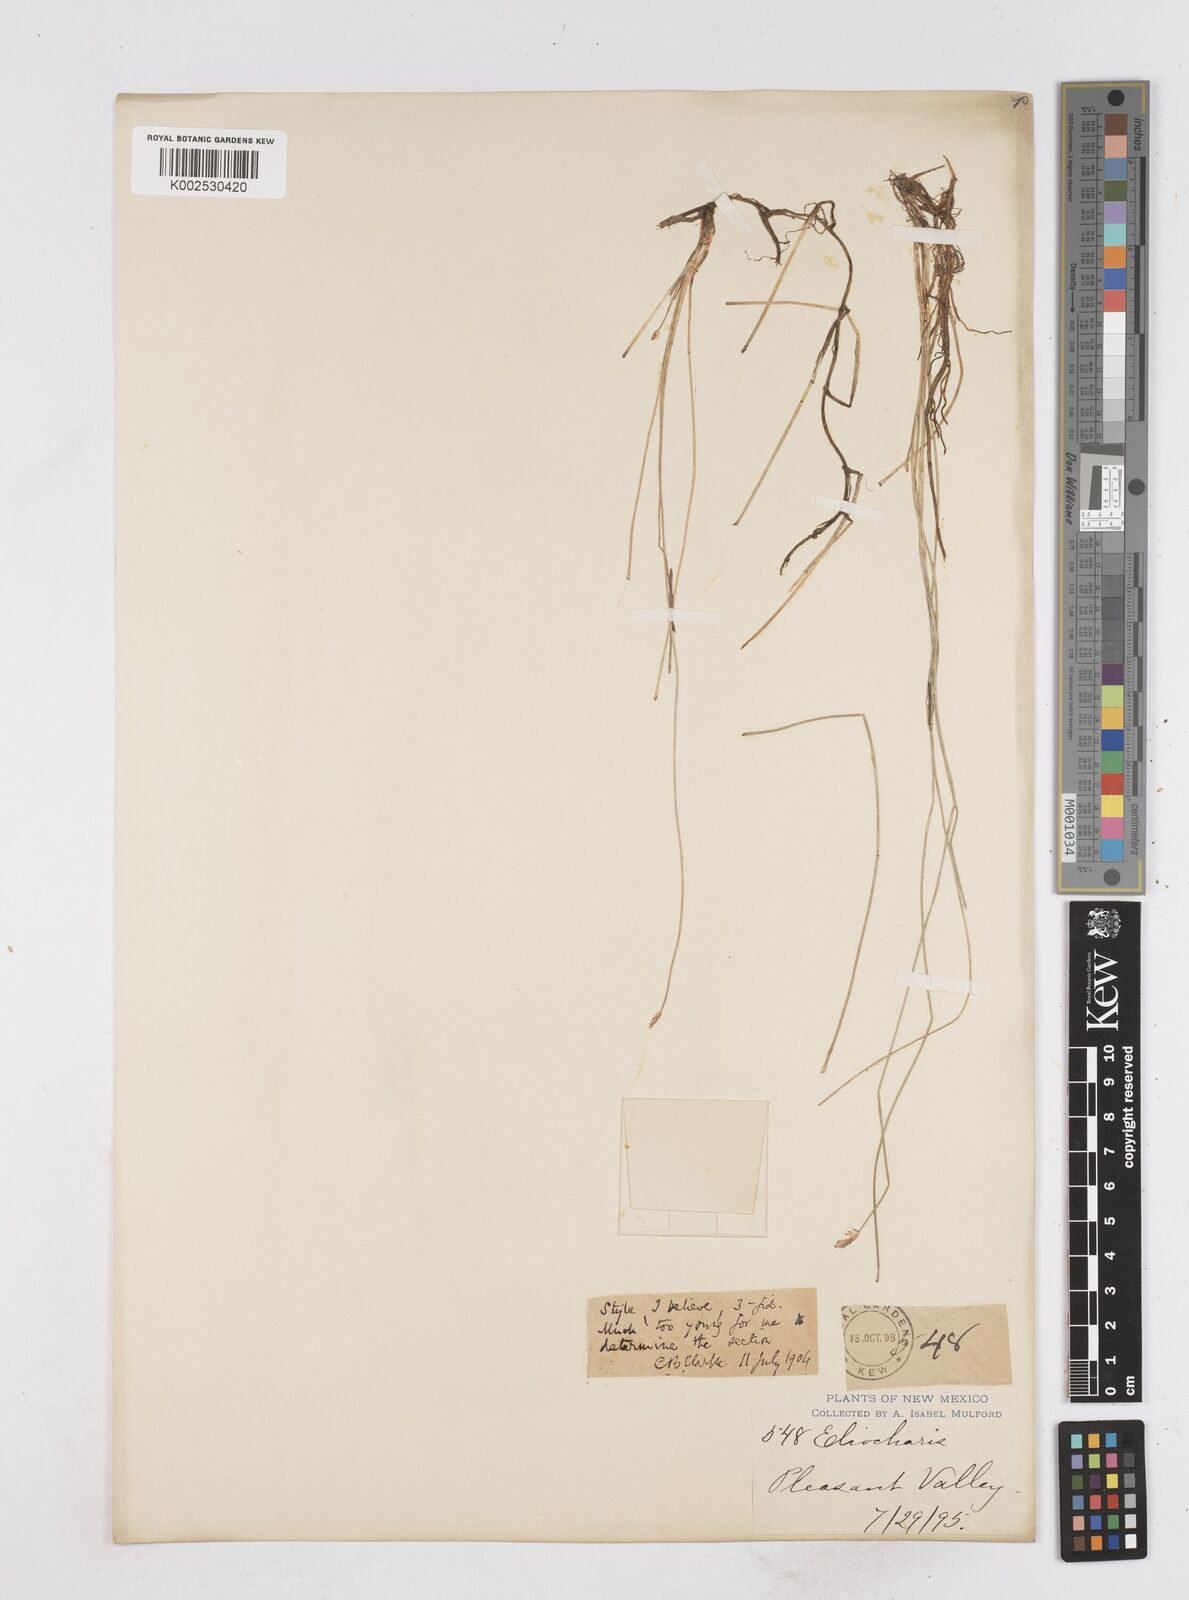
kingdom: Plantae
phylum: Tracheophyta
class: Liliopsida
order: Poales
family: Cyperaceae
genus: Eleocharis
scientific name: Eleocharis
